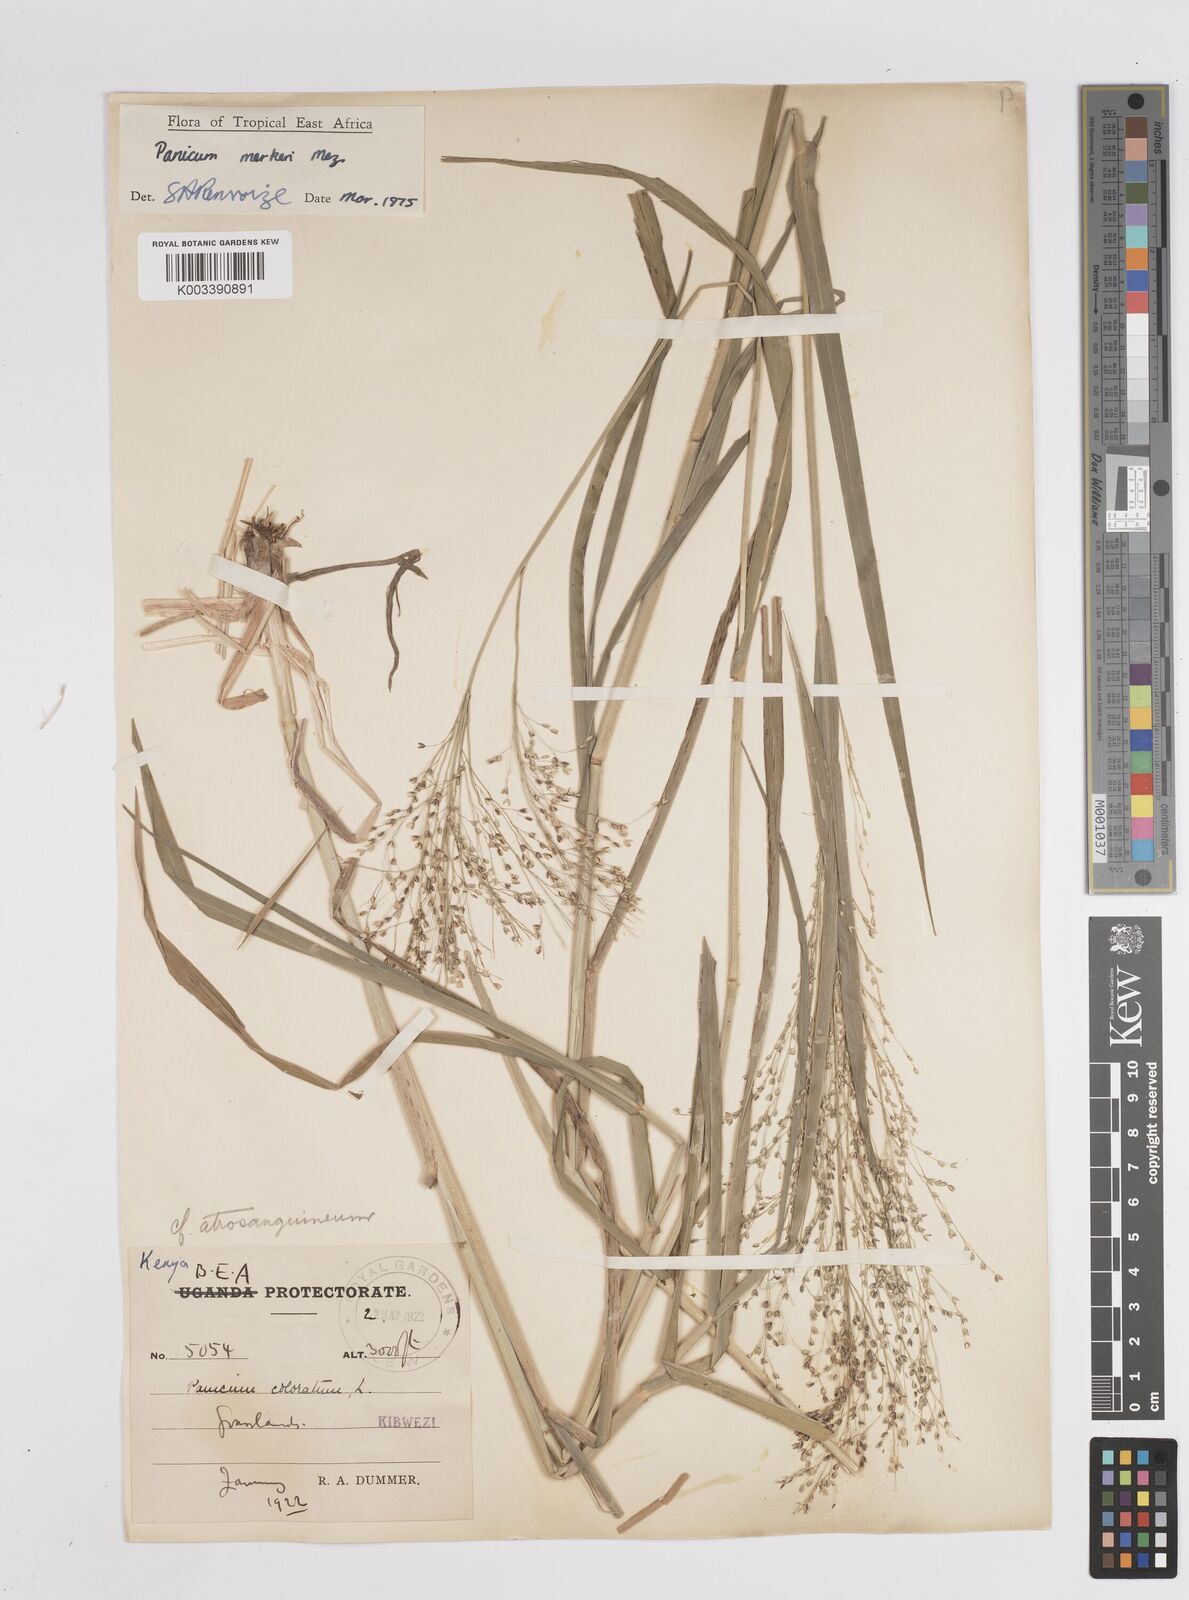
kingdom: Plantae
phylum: Tracheophyta
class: Liliopsida
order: Poales
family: Poaceae
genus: Panicum
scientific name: Panicum merkeri
